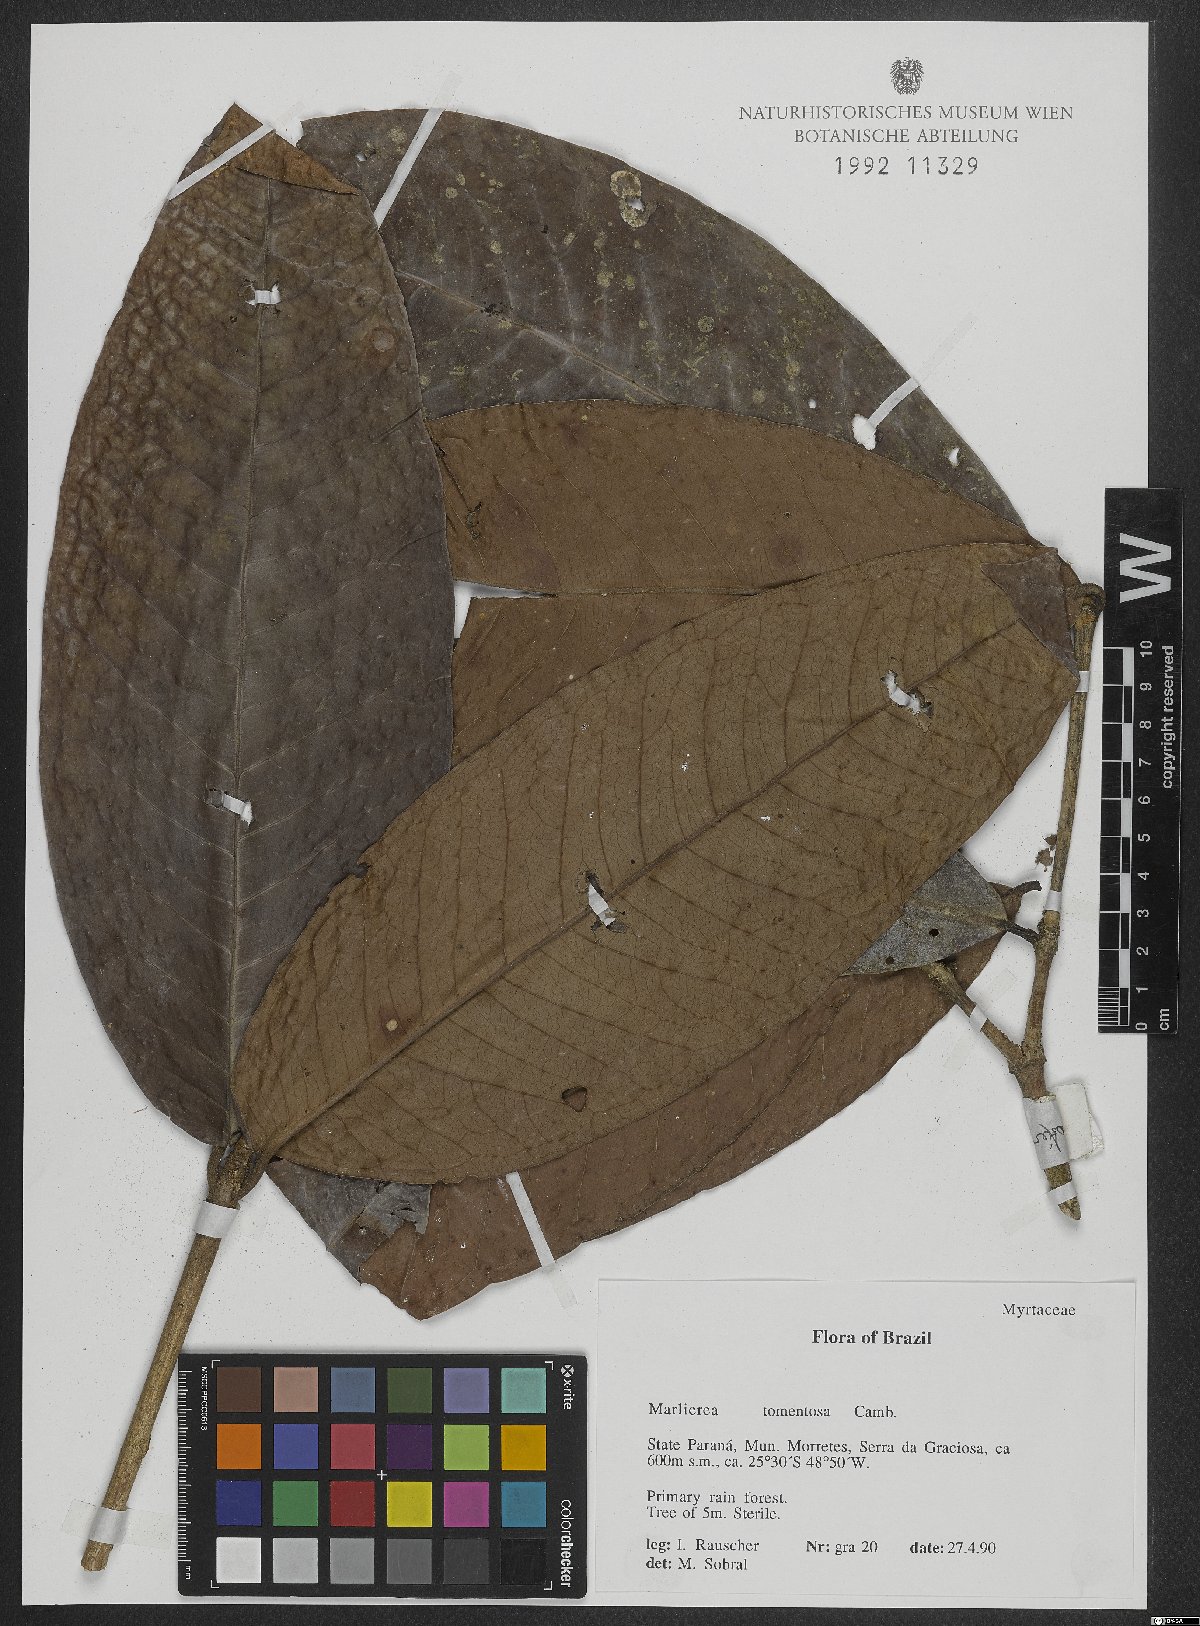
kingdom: Plantae
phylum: Tracheophyta
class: Magnoliopsida
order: Myrtales
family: Myrtaceae
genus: Myrcia
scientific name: Myrcia neotomentosa
